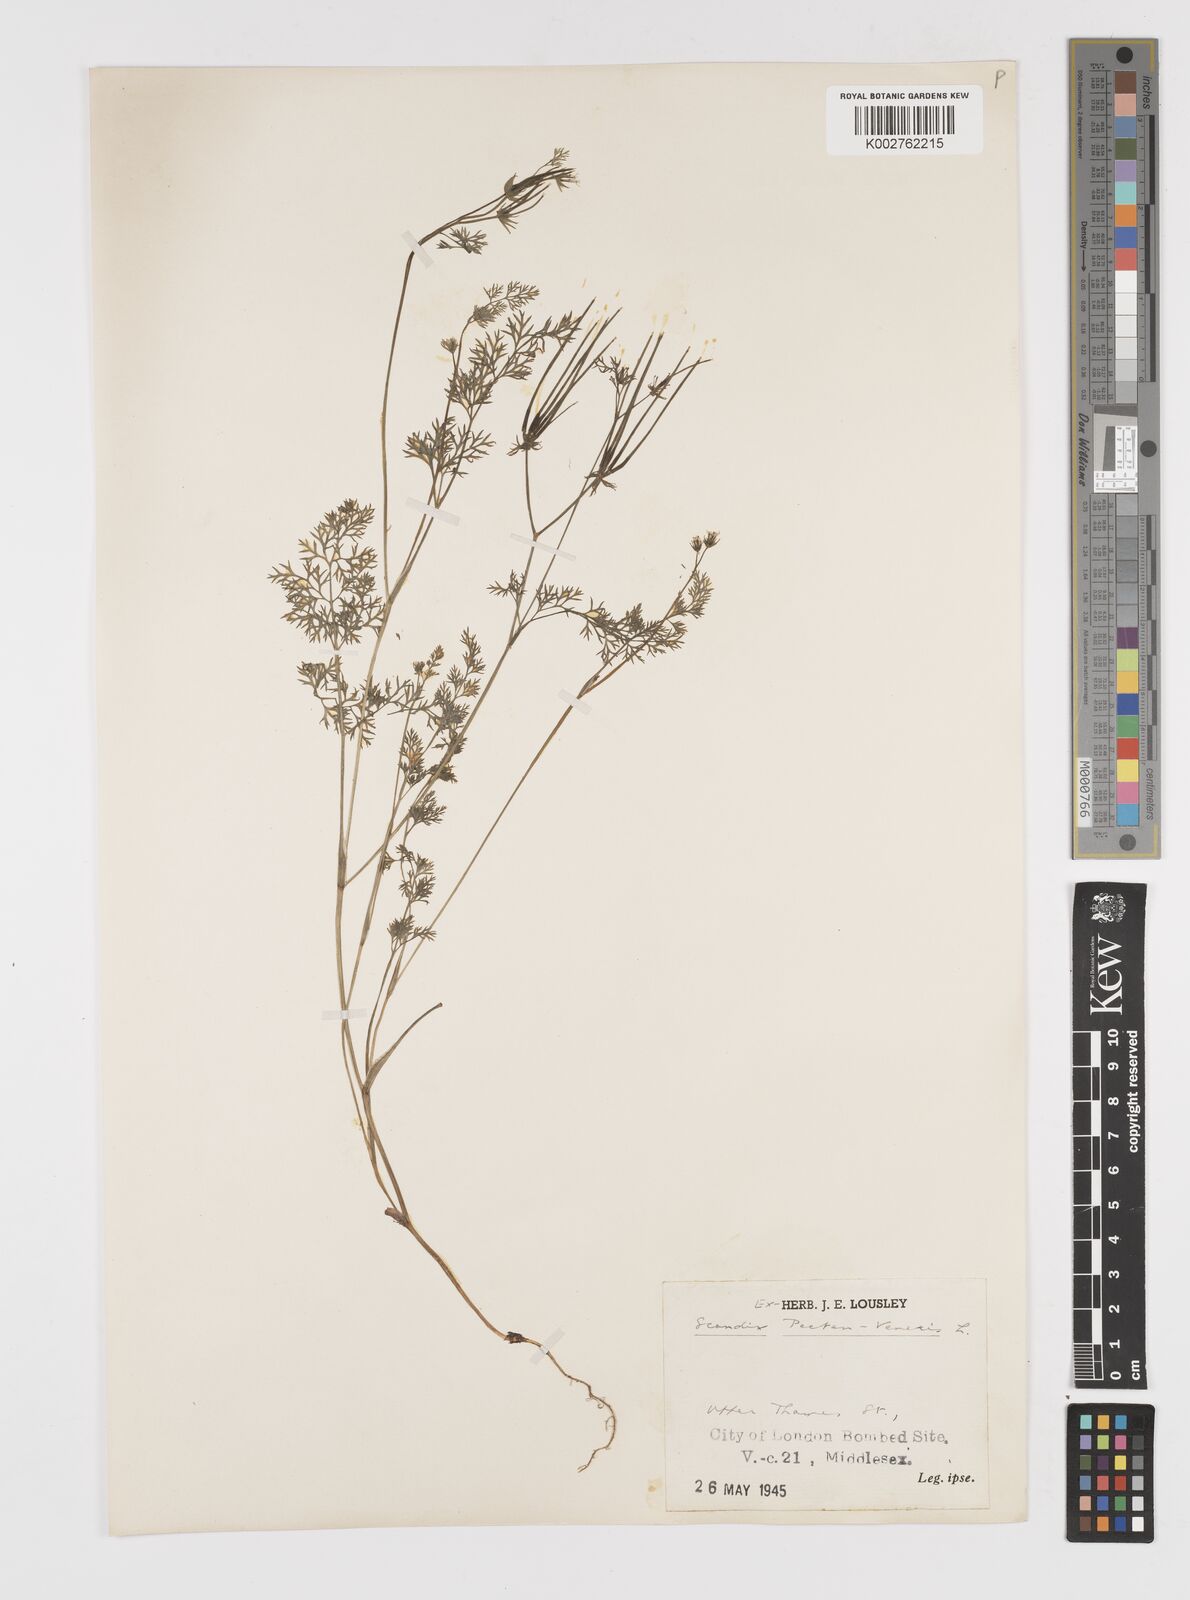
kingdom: Plantae
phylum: Tracheophyta
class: Magnoliopsida
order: Apiales
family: Apiaceae
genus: Scandix
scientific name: Scandix pecten-veneris
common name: Shepherd's-needle
